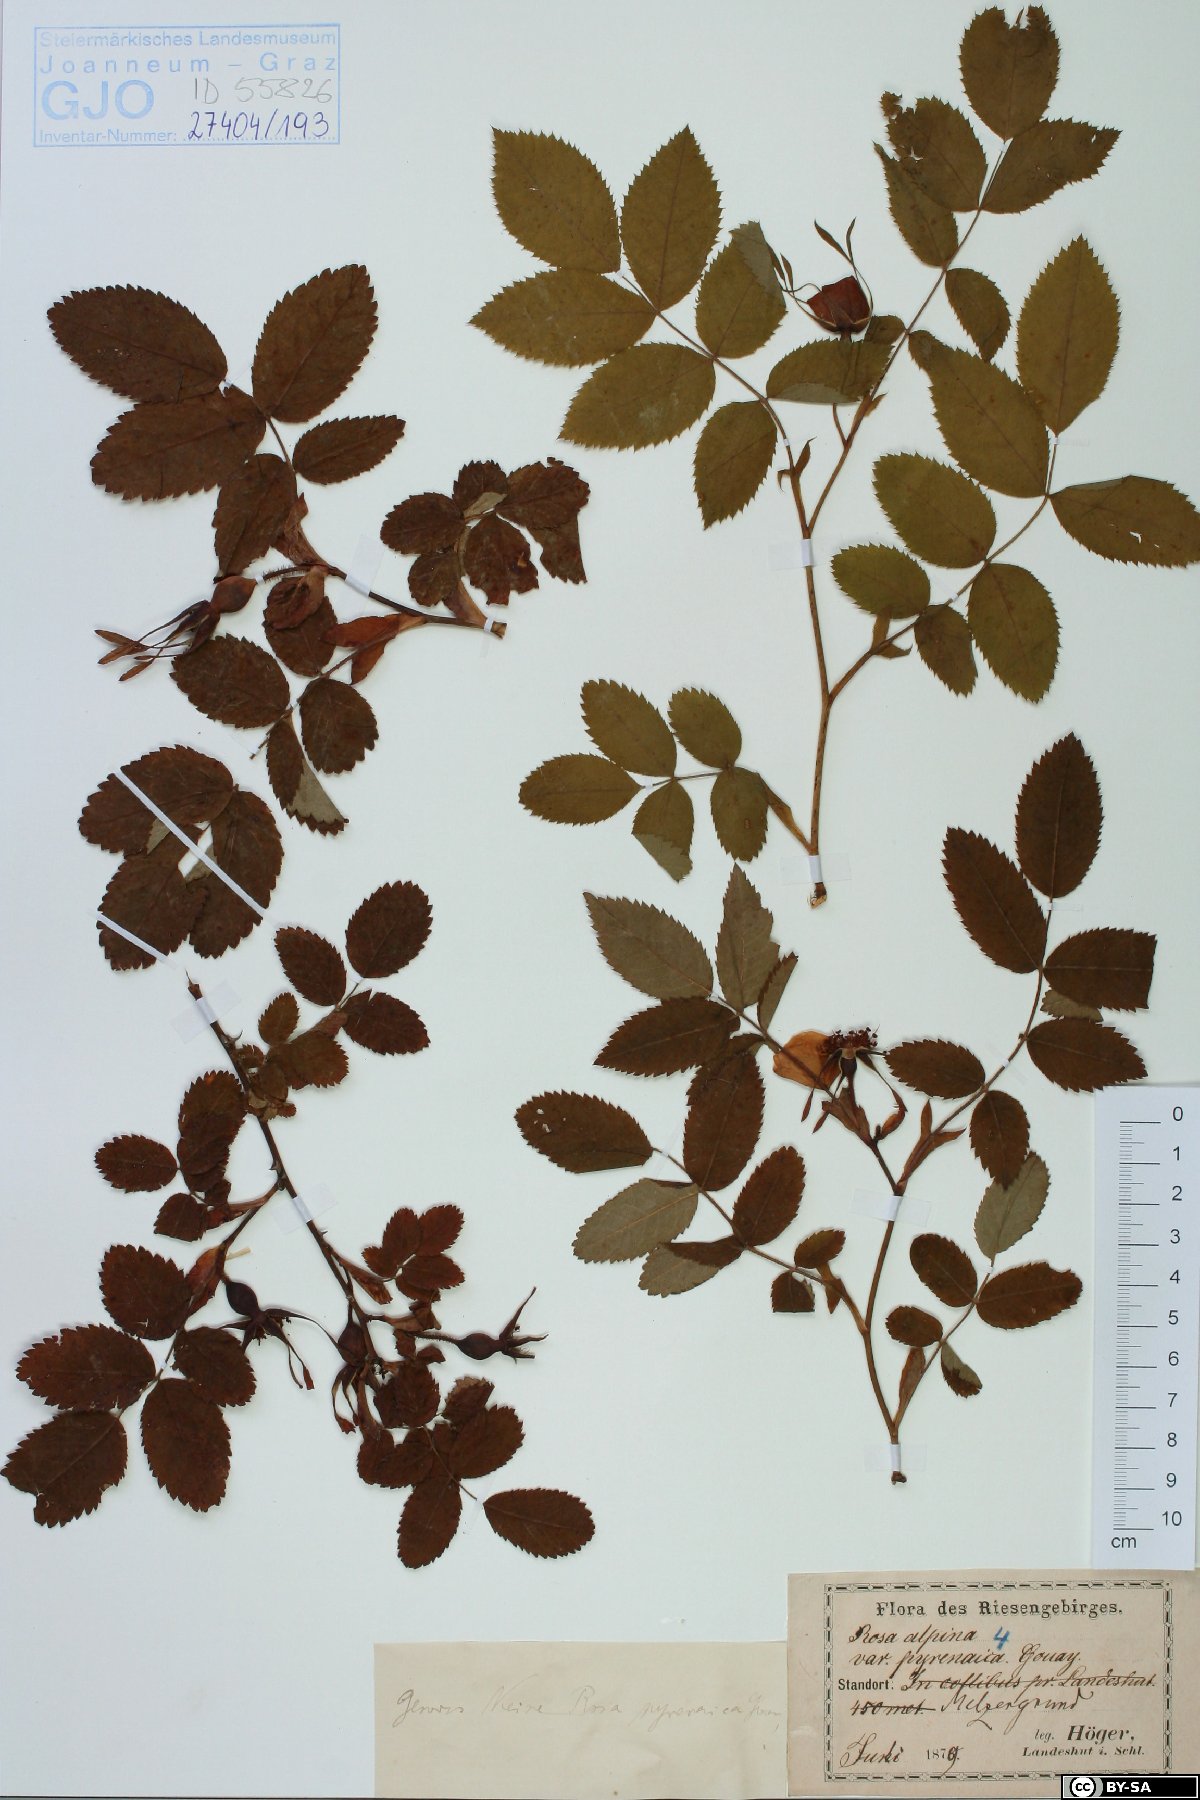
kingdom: Plantae
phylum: Tracheophyta
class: Magnoliopsida
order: Rosales
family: Rosaceae
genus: Rosa
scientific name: Rosa pendulina
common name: Alpine rose
